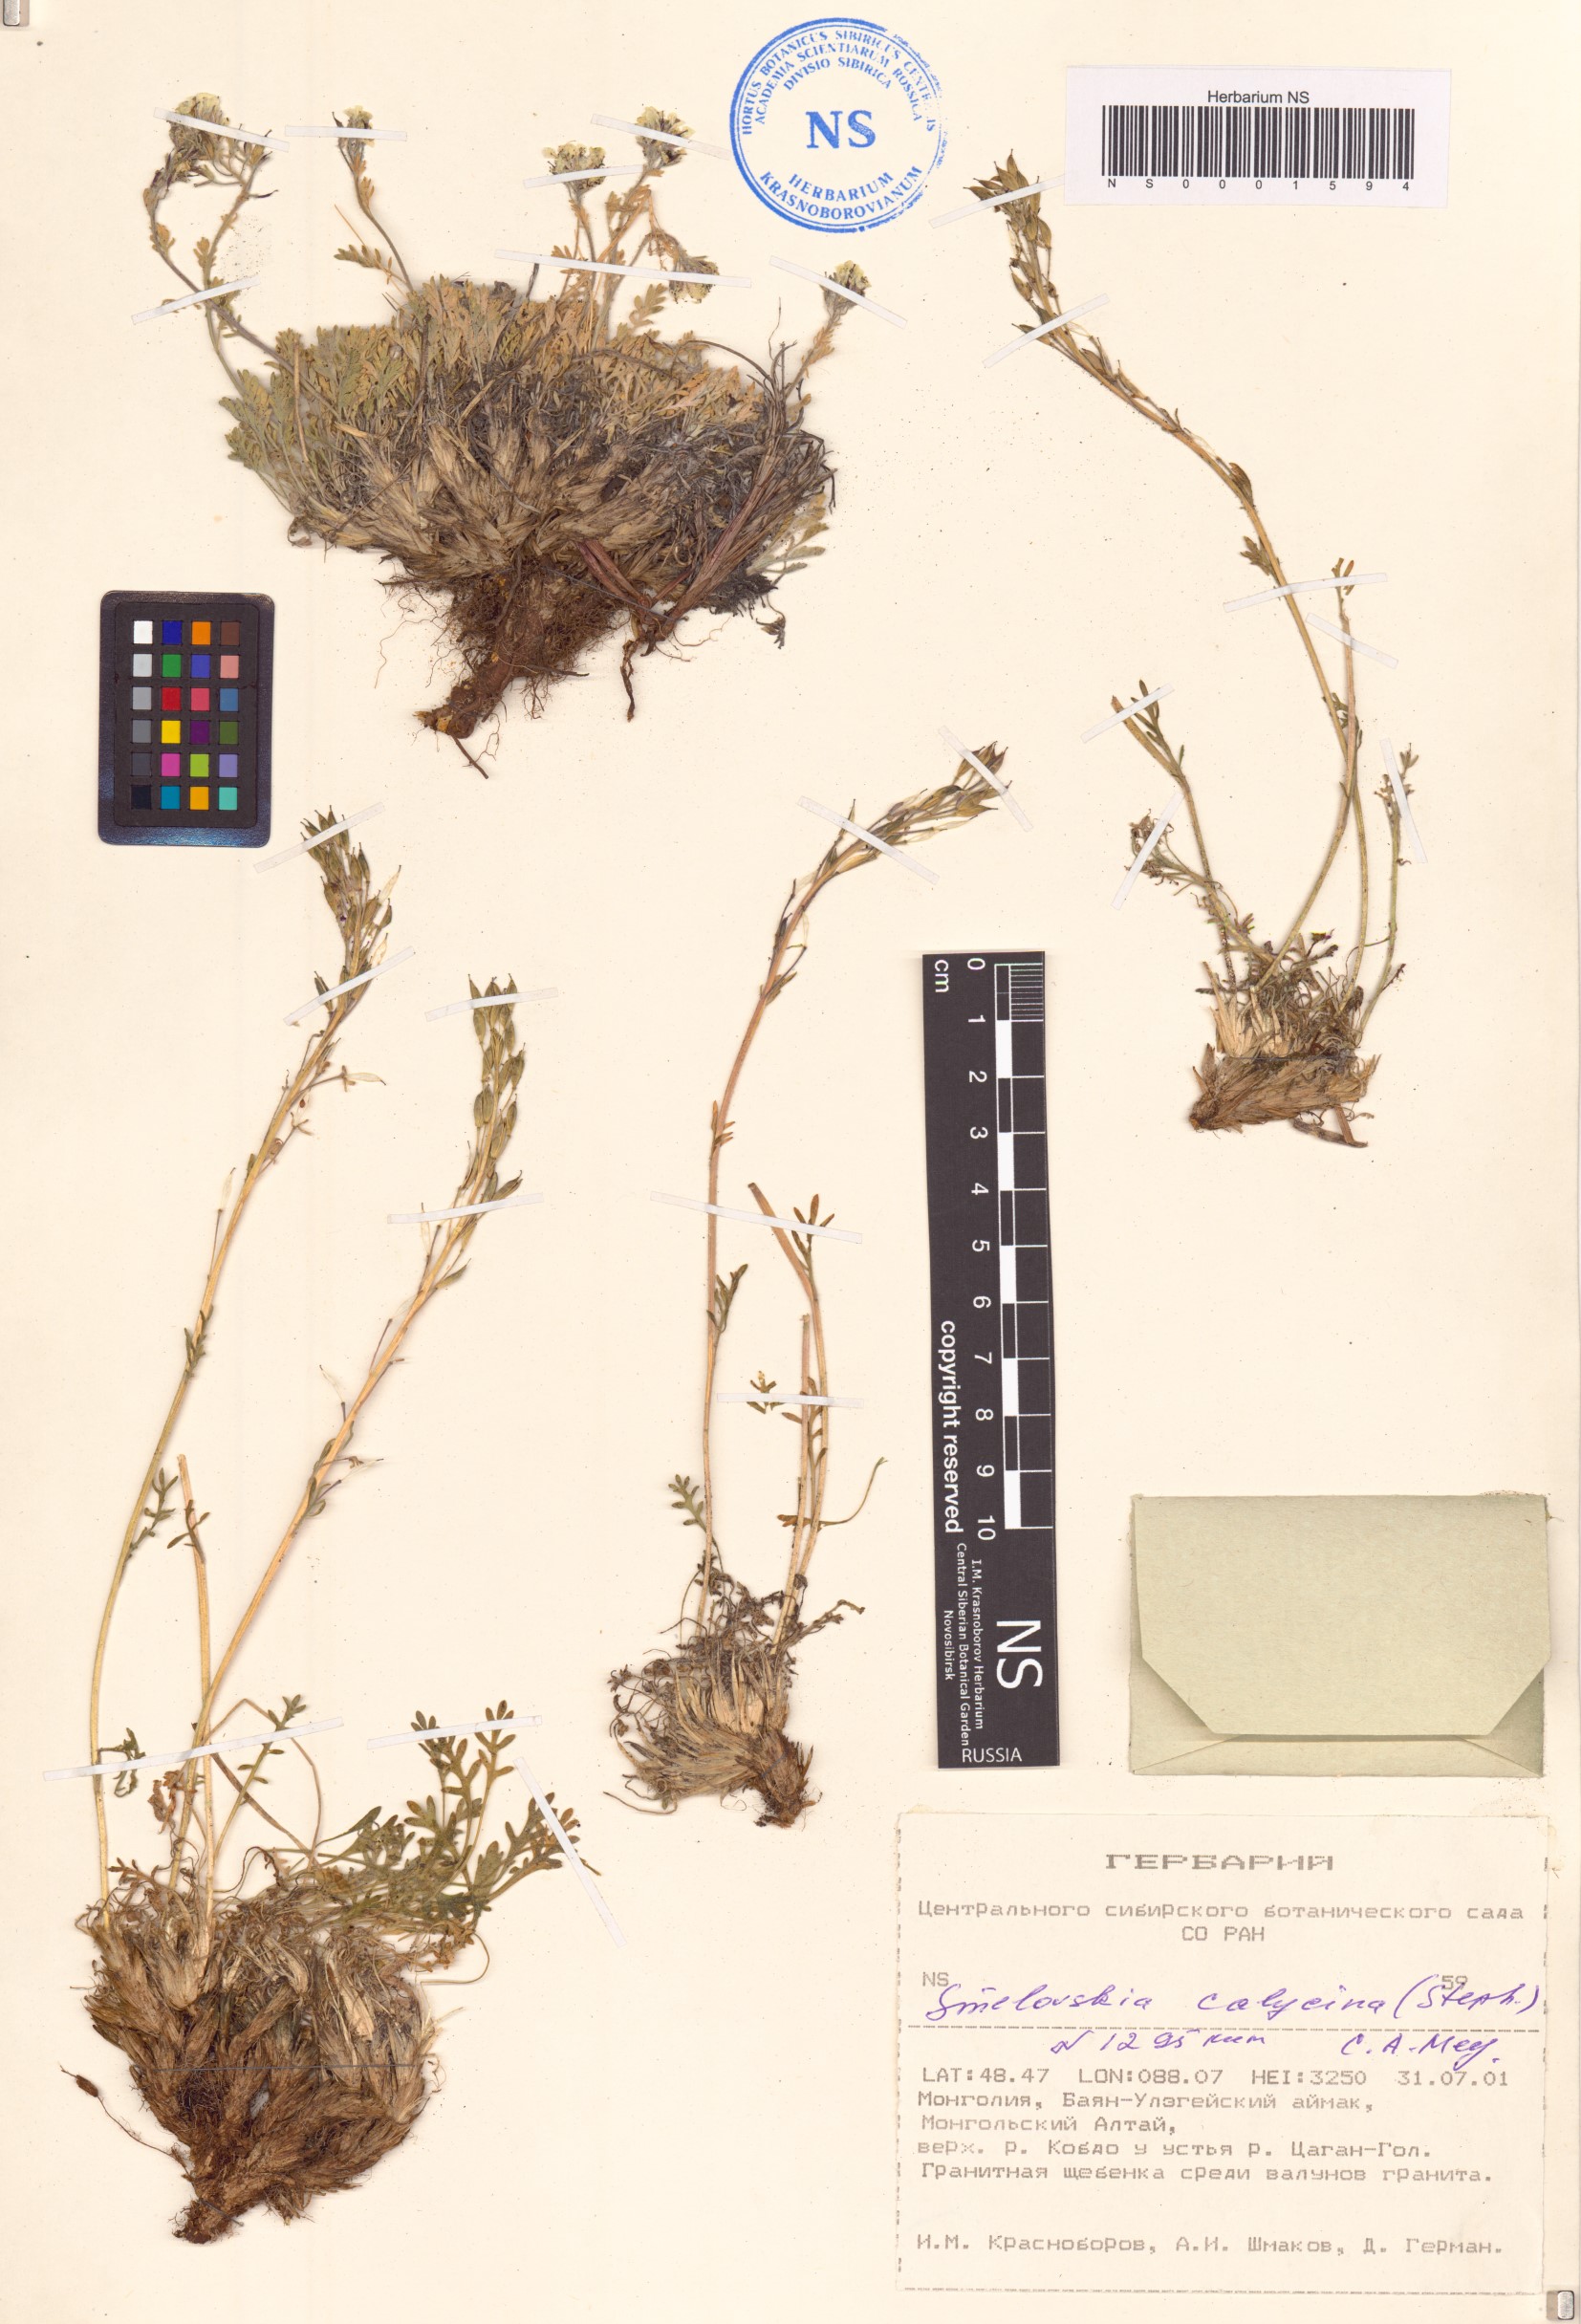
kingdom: Plantae
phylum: Tracheophyta
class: Magnoliopsida
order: Brassicales
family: Brassicaceae
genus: Smelowskia
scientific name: Smelowskia calycina
